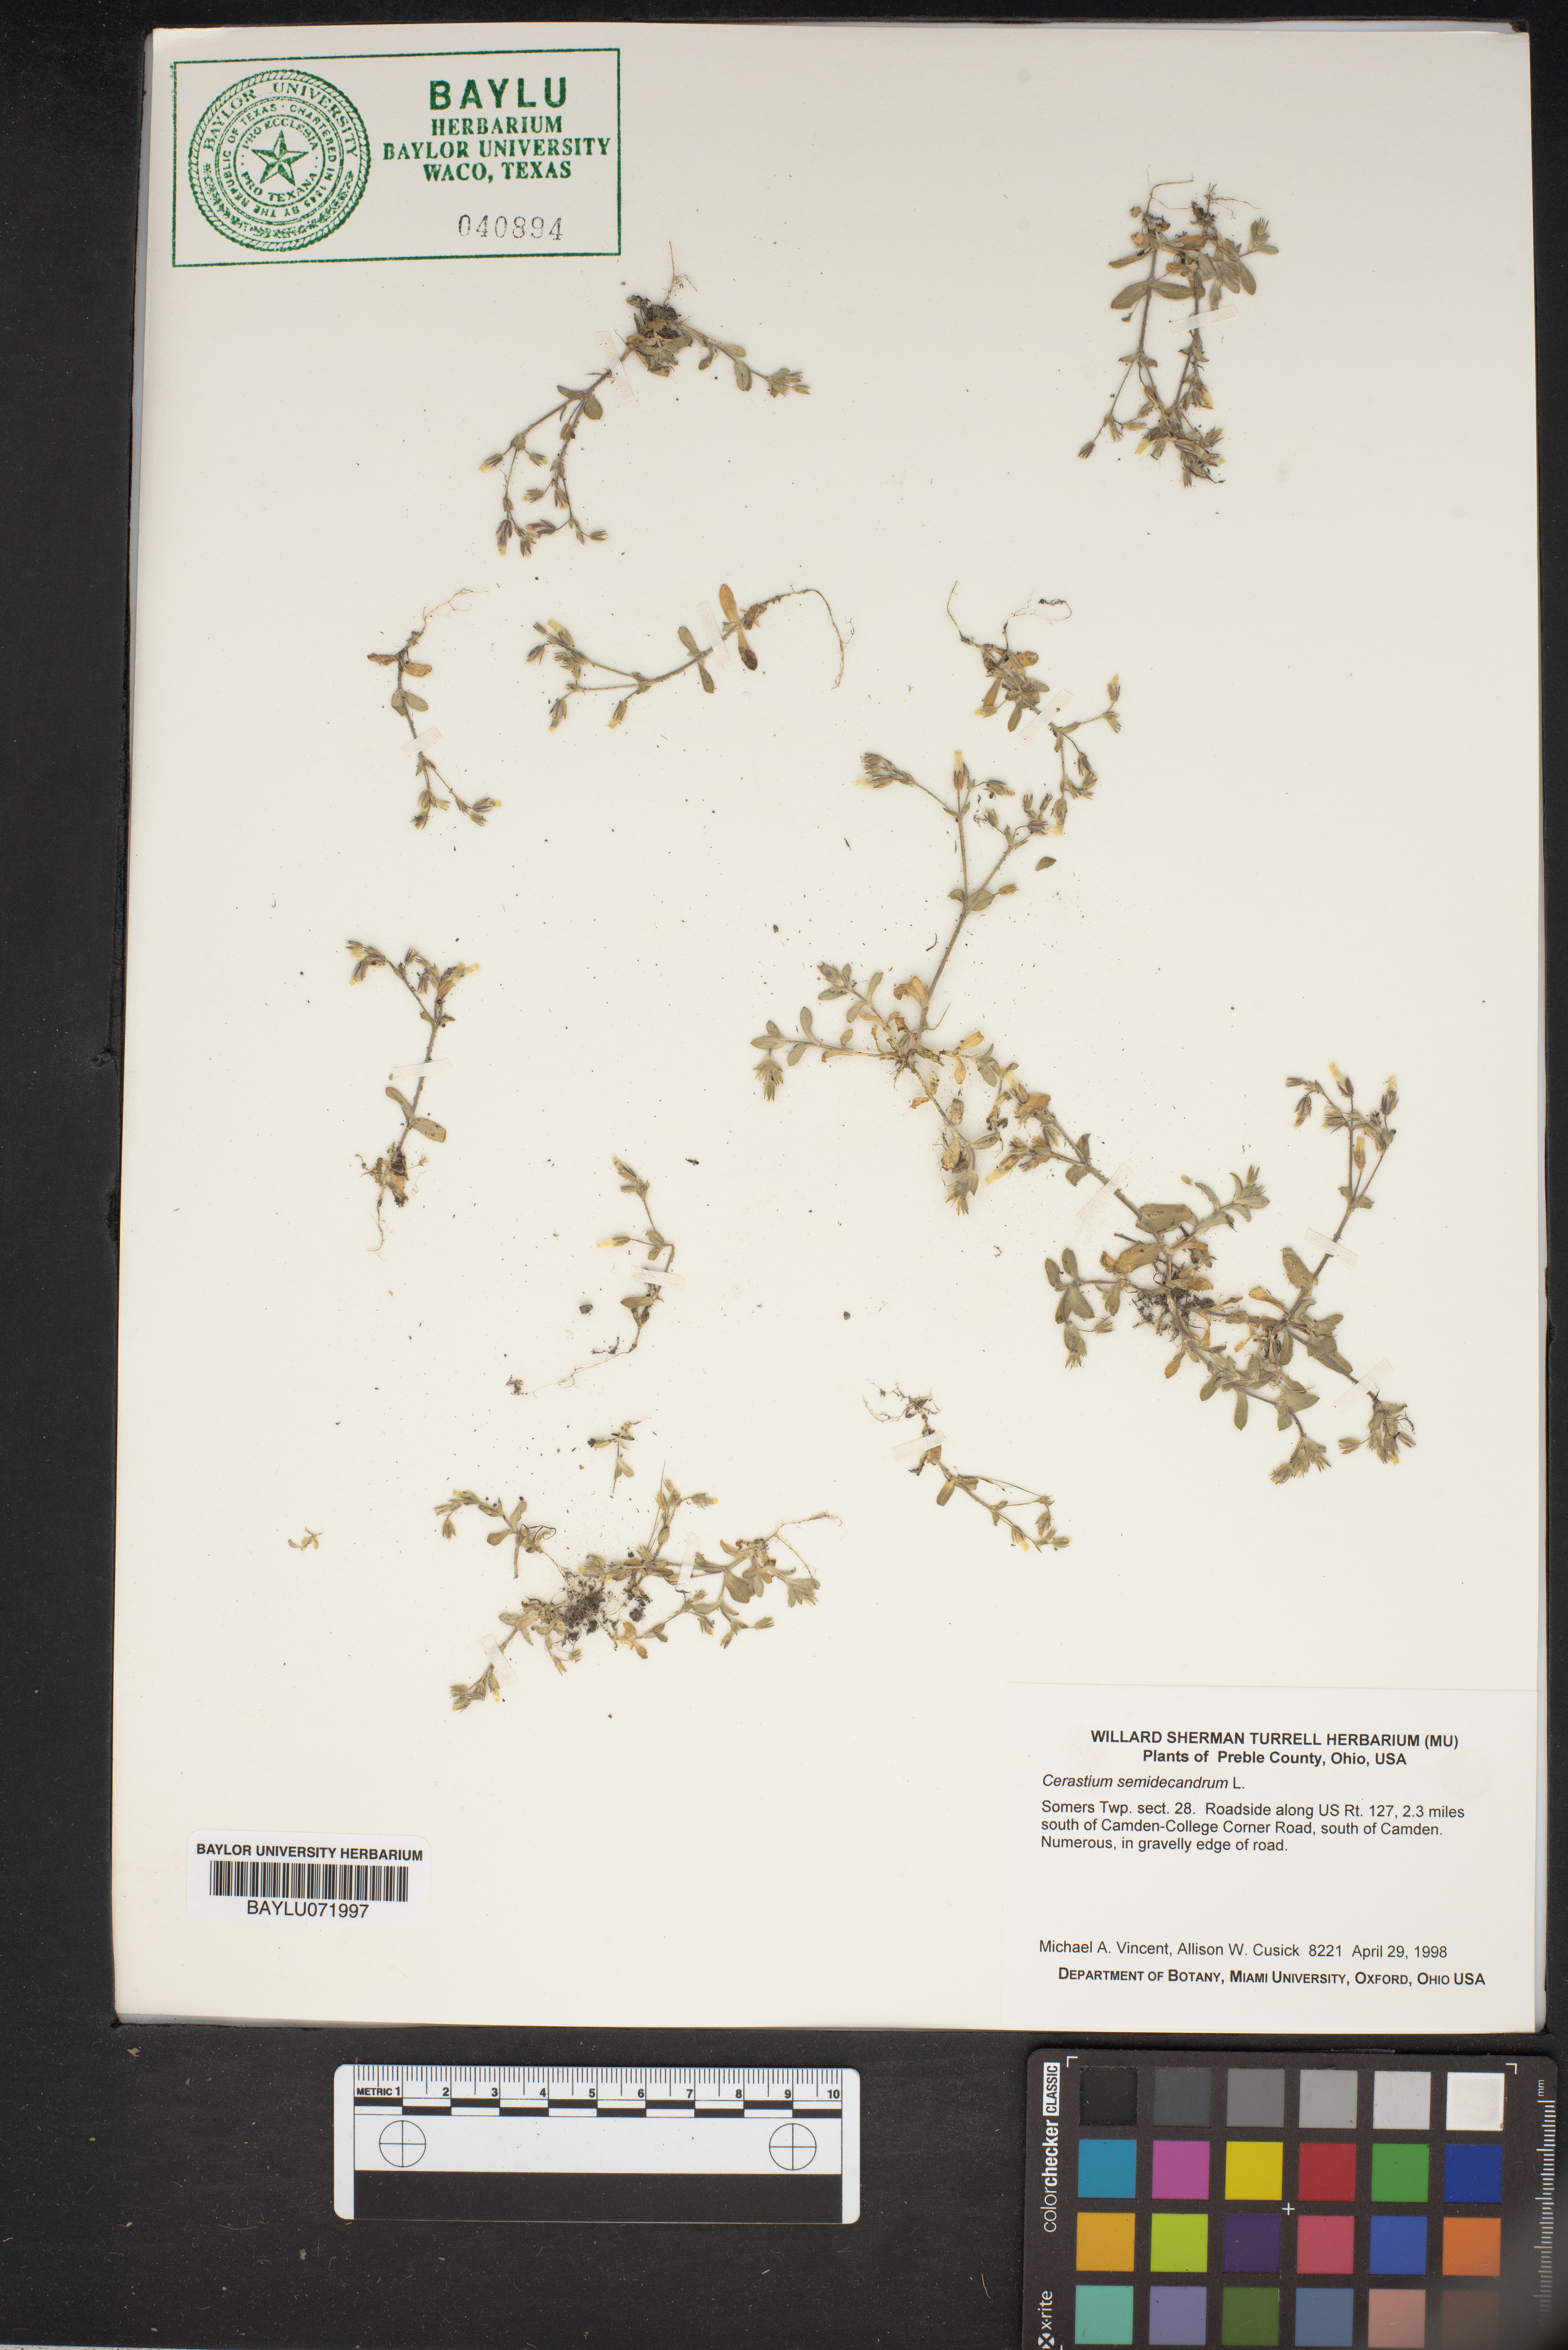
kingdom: Plantae
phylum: Tracheophyta
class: Magnoliopsida
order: Caryophyllales
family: Caryophyllaceae
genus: Cerastium
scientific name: Cerastium semidecandrum
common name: Little mouse-ear
